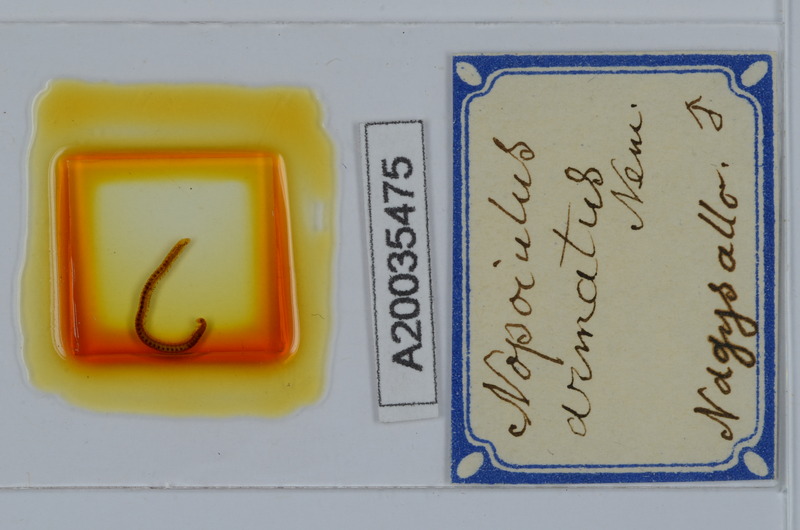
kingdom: Animalia
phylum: Arthropoda
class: Diplopoda
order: Julida
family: Blaniulidae
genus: Nopoiulus
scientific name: Nopoiulus kochii
